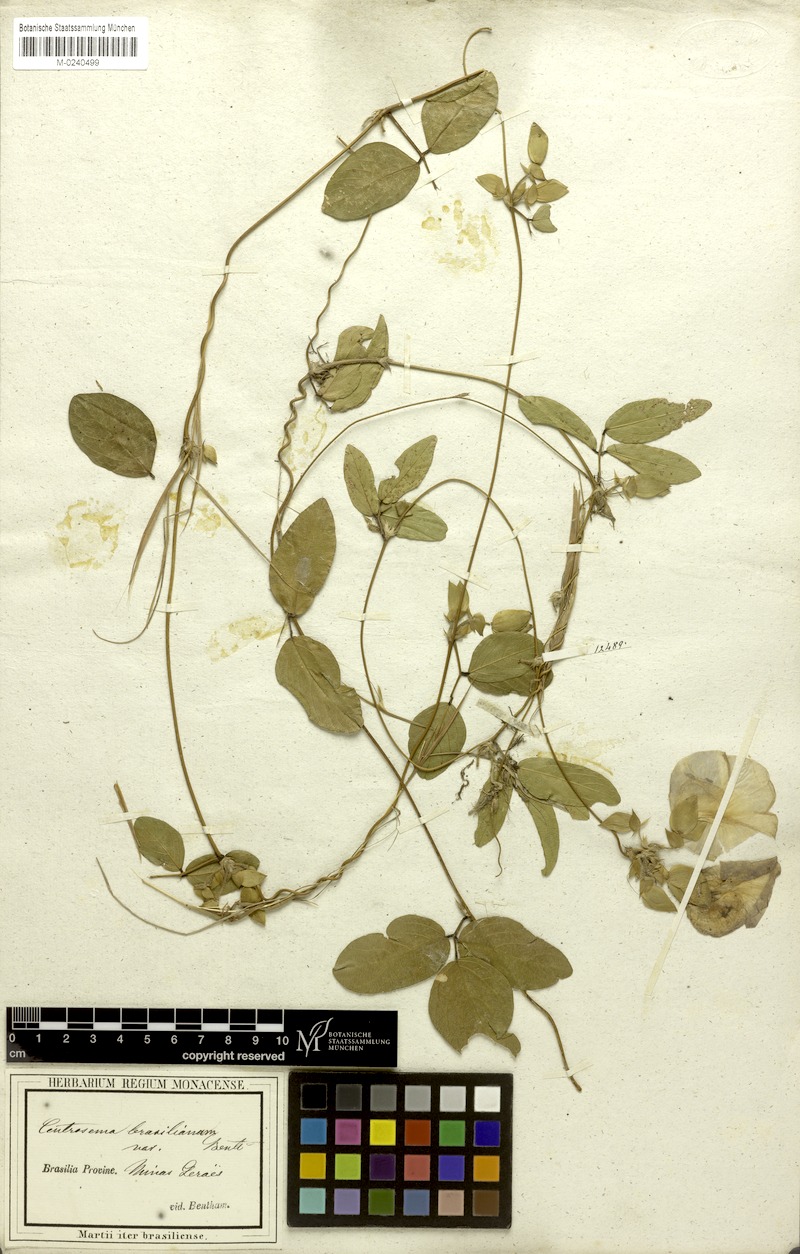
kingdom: Plantae
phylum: Tracheophyta
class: Magnoliopsida
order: Fabales
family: Fabaceae
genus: Centrosema
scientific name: Centrosema brasilianum
